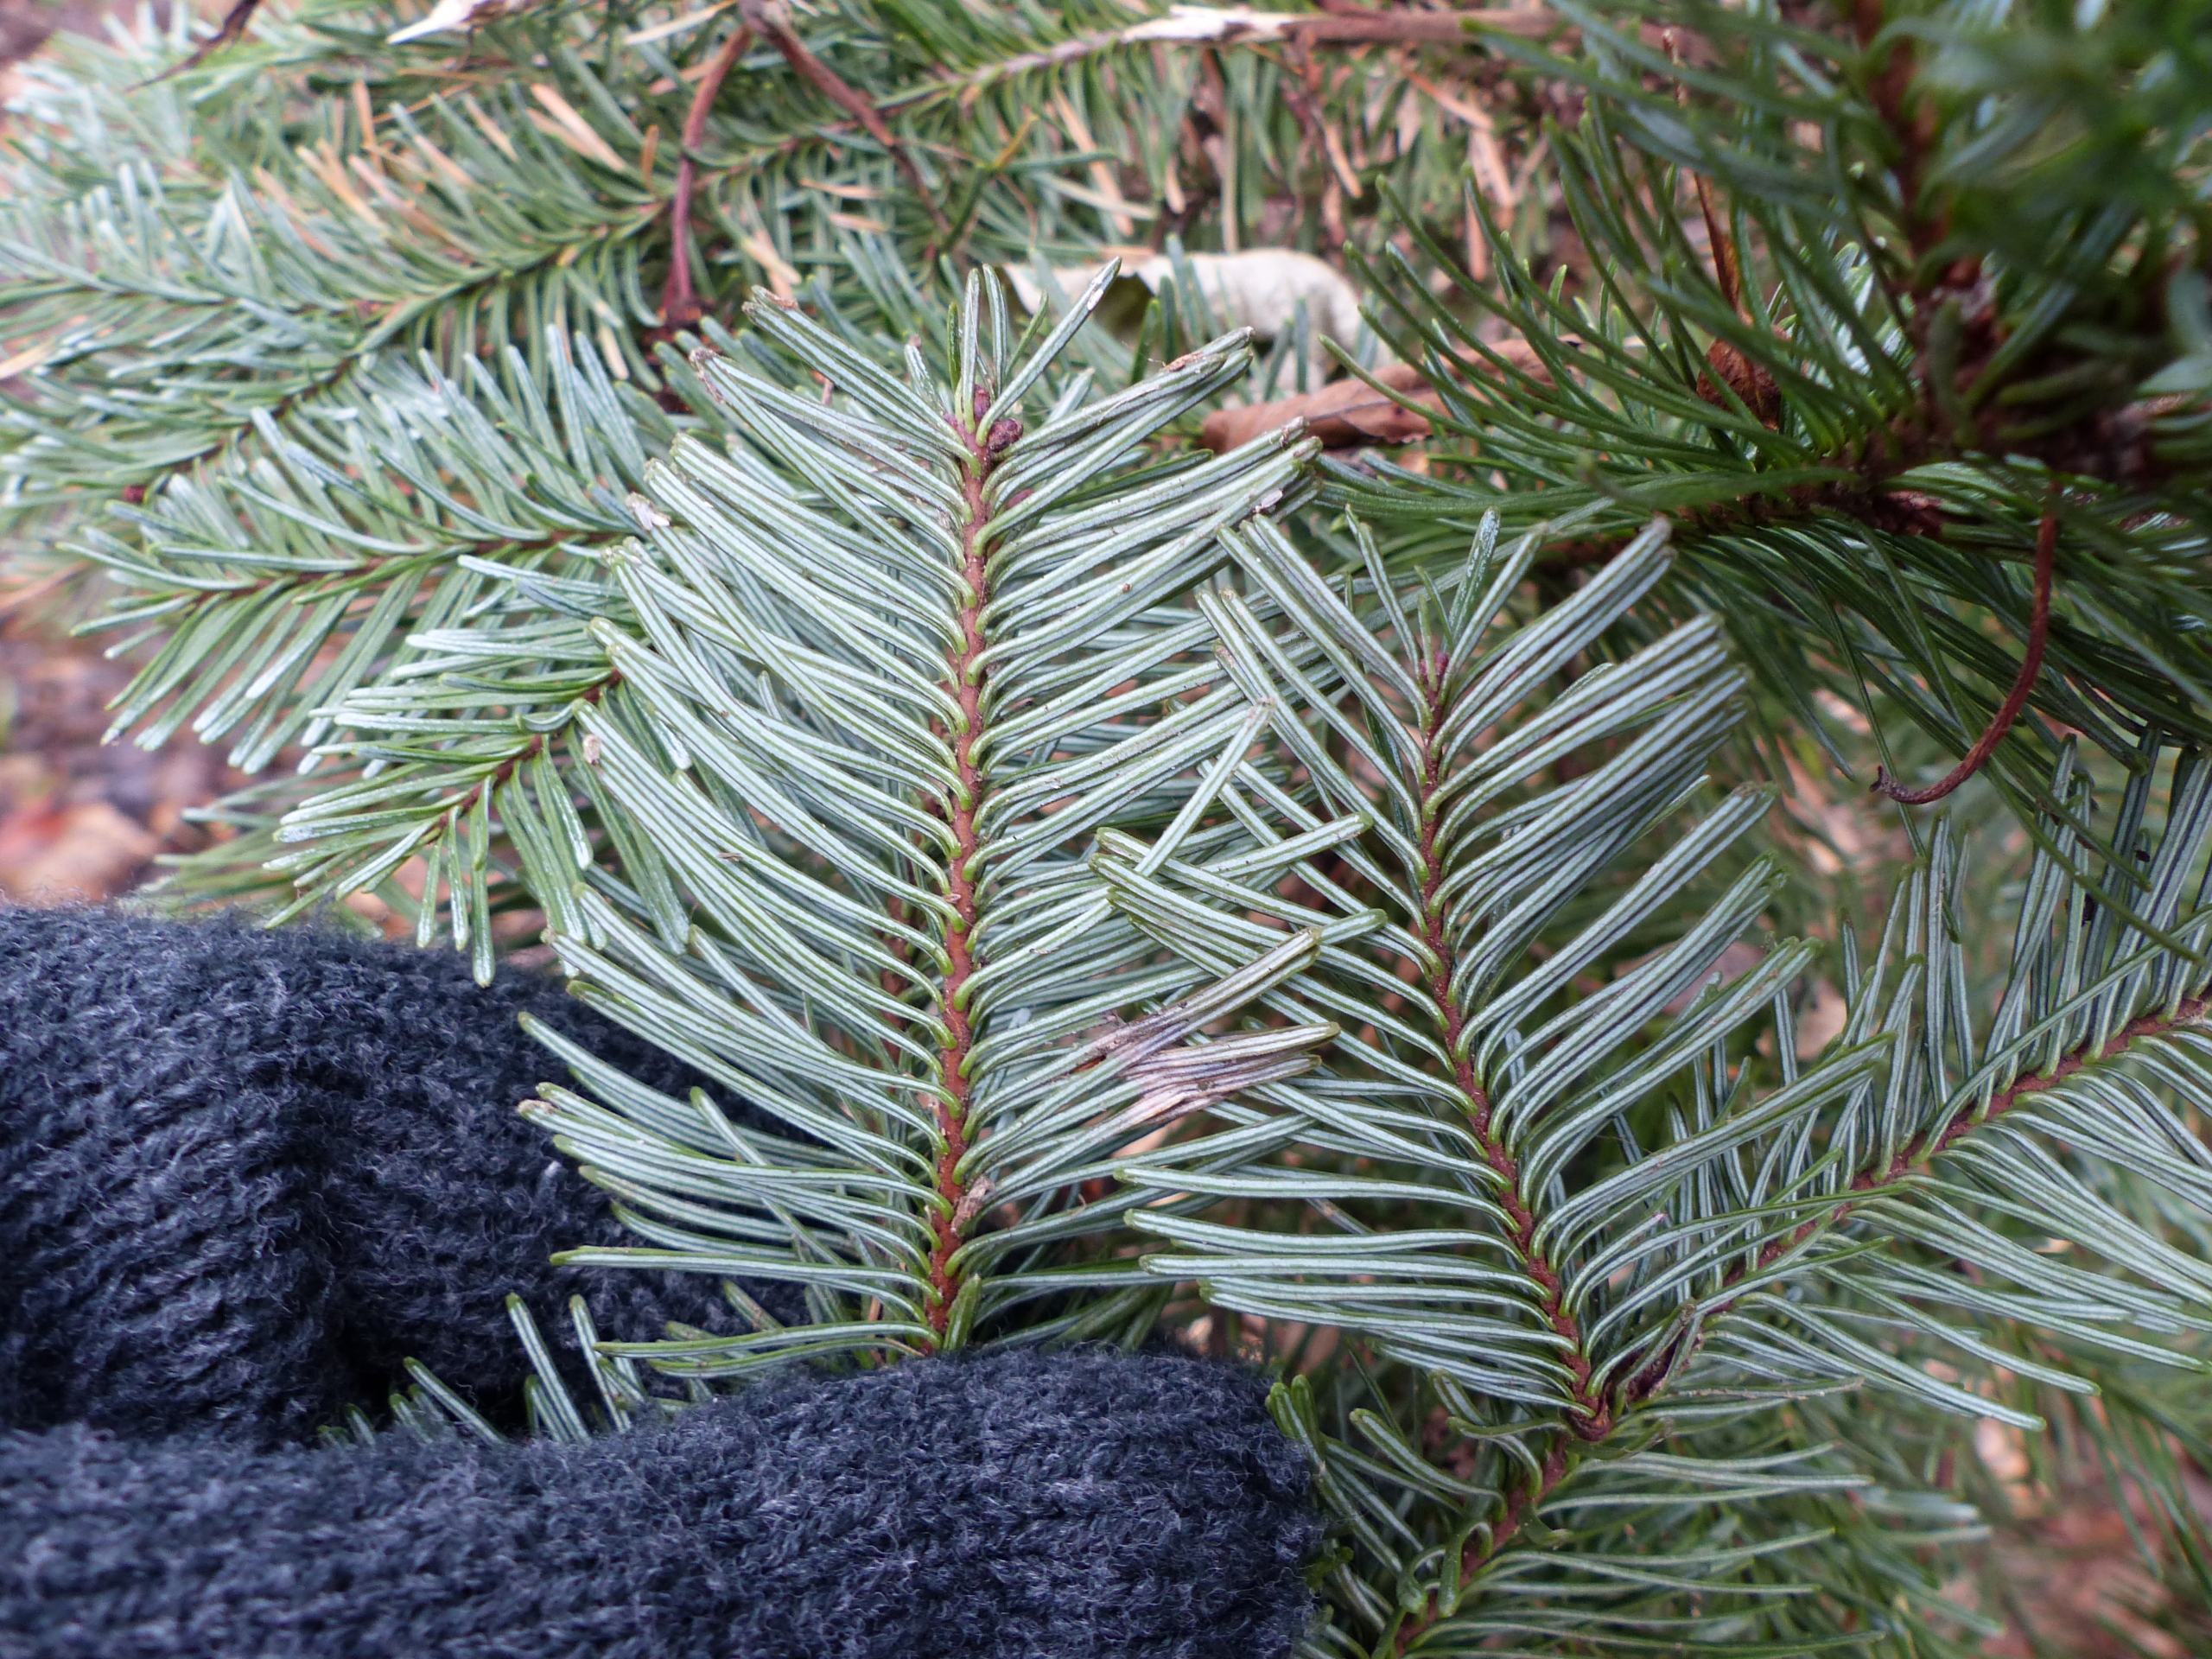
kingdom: Plantae
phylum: Tracheophyta
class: Pinopsida
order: Pinales
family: Pinaceae
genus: Abies
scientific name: Abies procera
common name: Sølvgran
